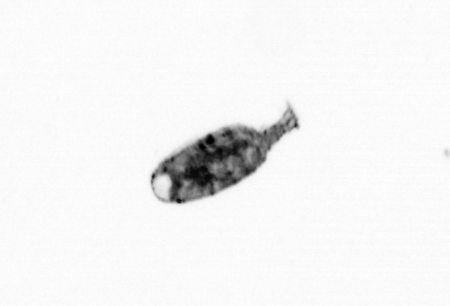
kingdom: Animalia
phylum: Arthropoda
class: Maxillopoda
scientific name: Maxillopoda
